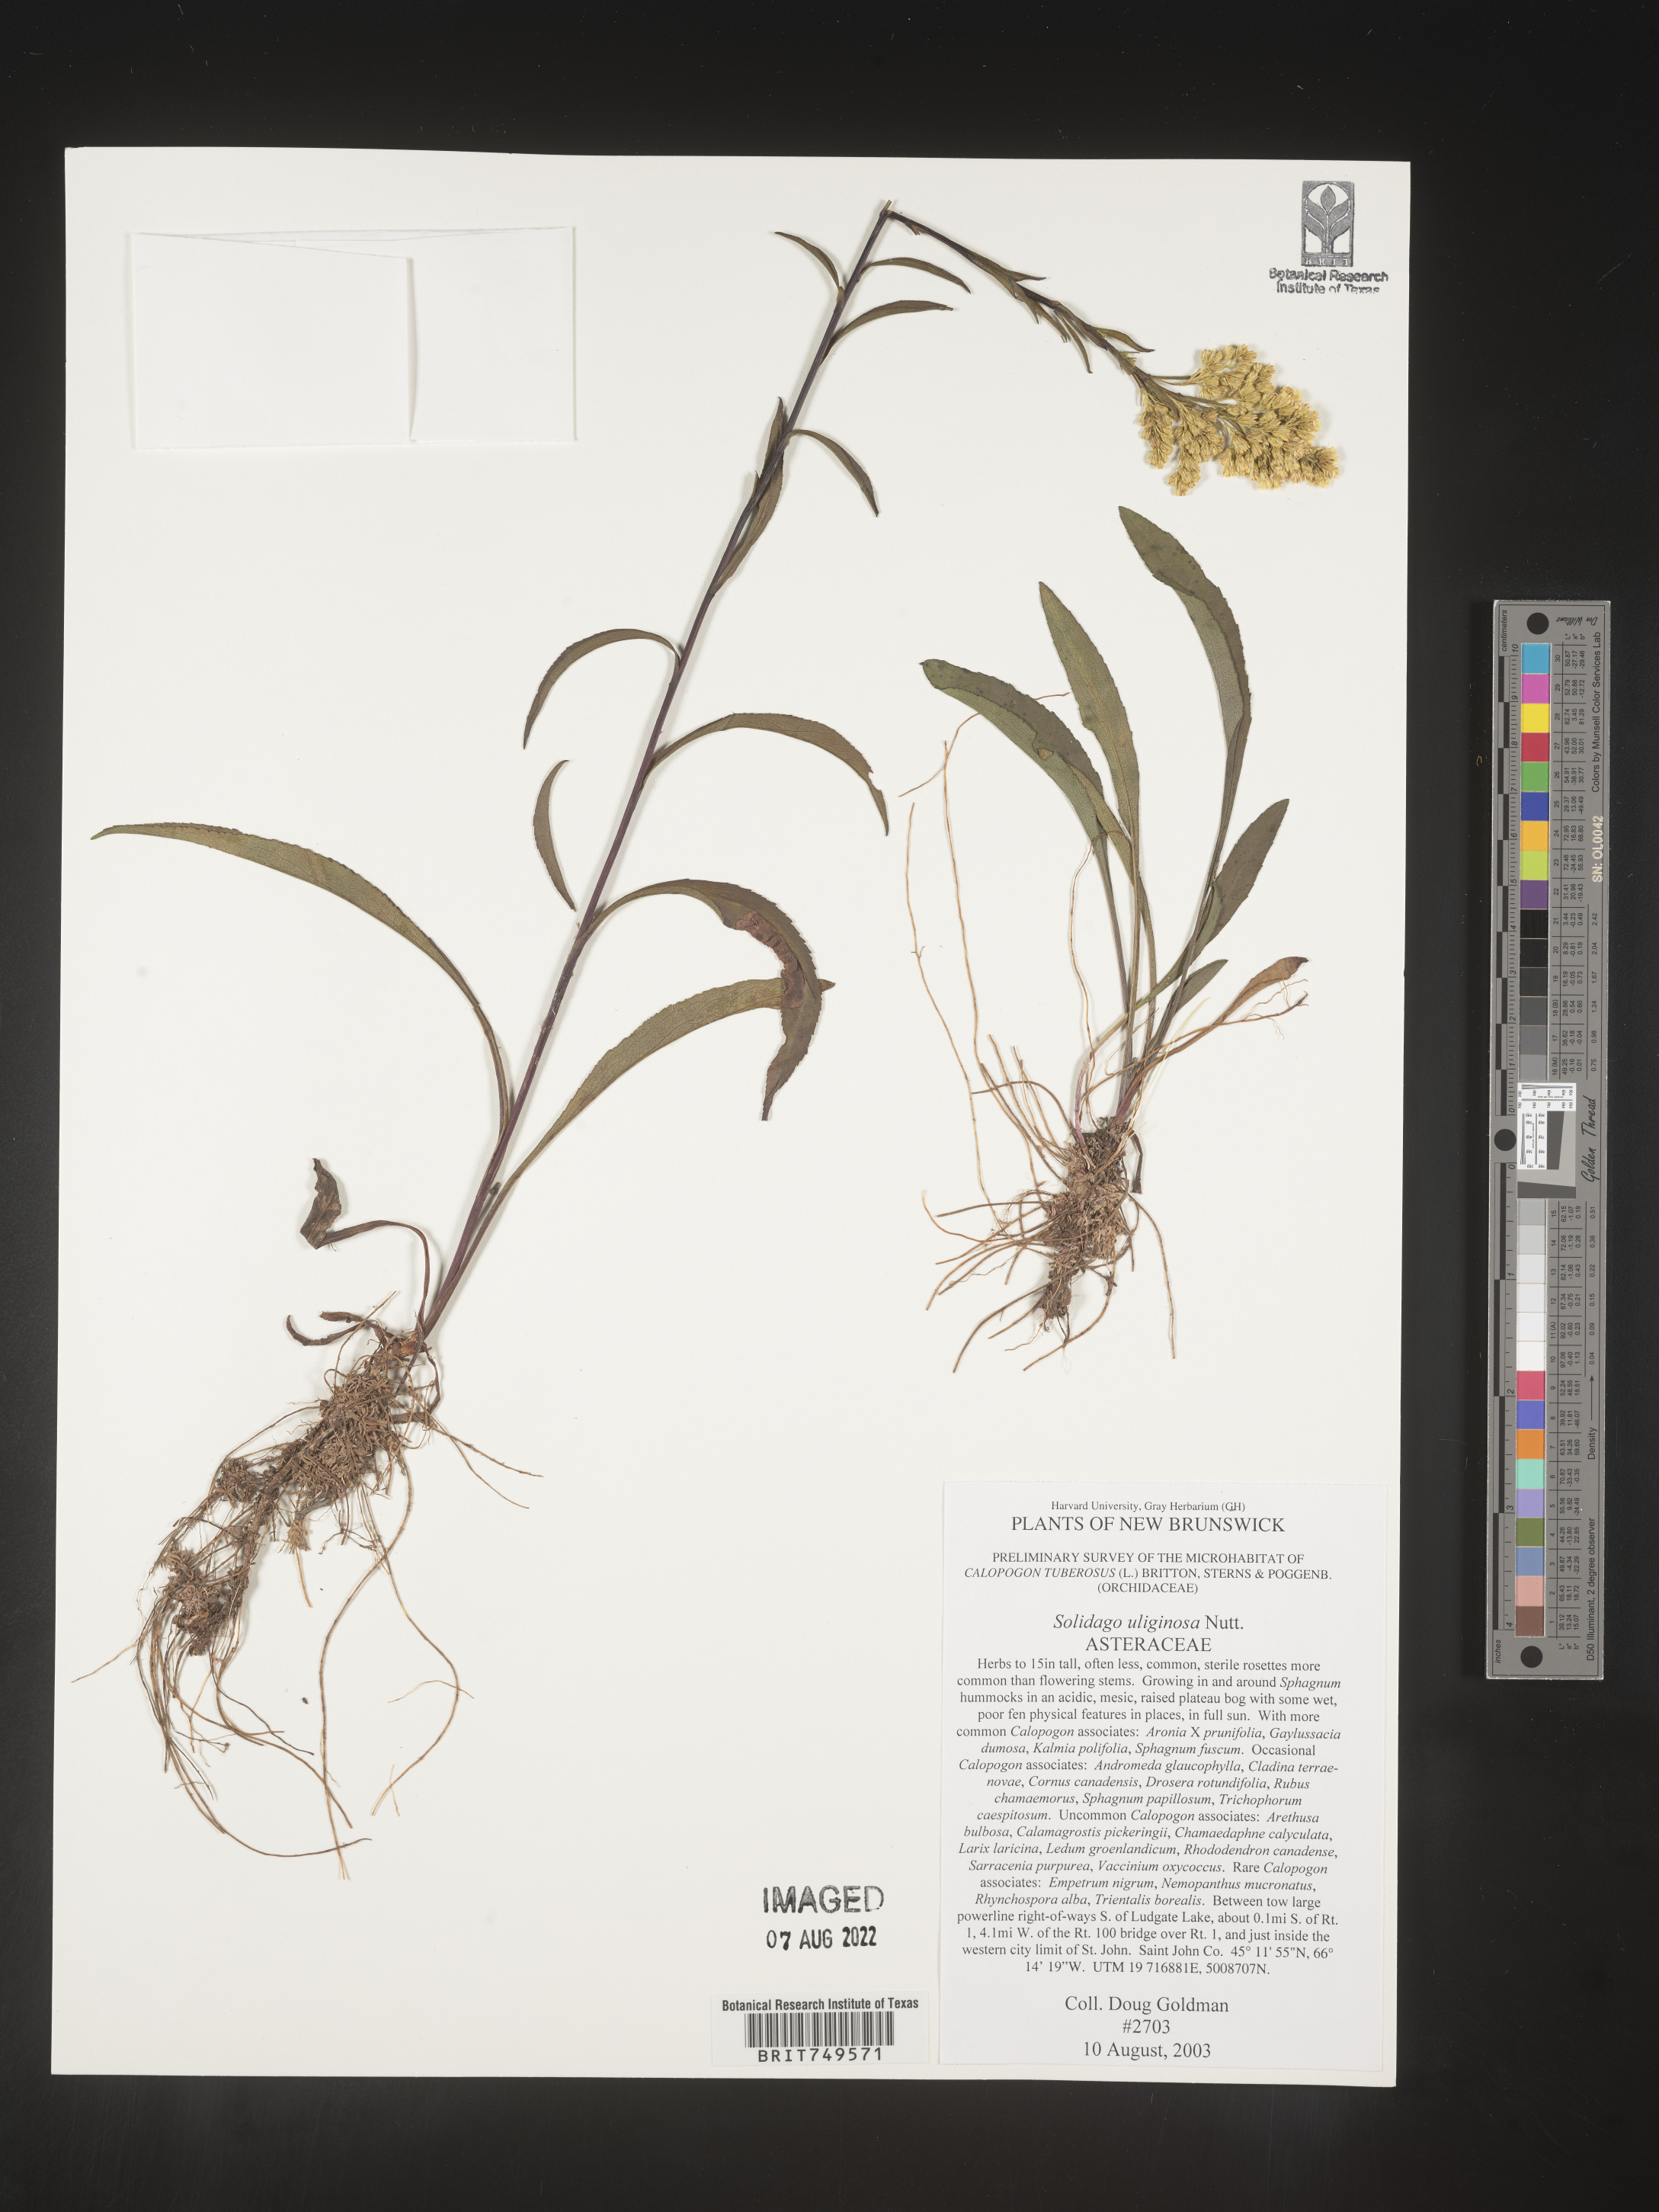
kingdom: Plantae
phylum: Tracheophyta
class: Magnoliopsida
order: Asterales
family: Asteraceae
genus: Solidago
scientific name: Solidago uliginosa
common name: Bog goldenrod
